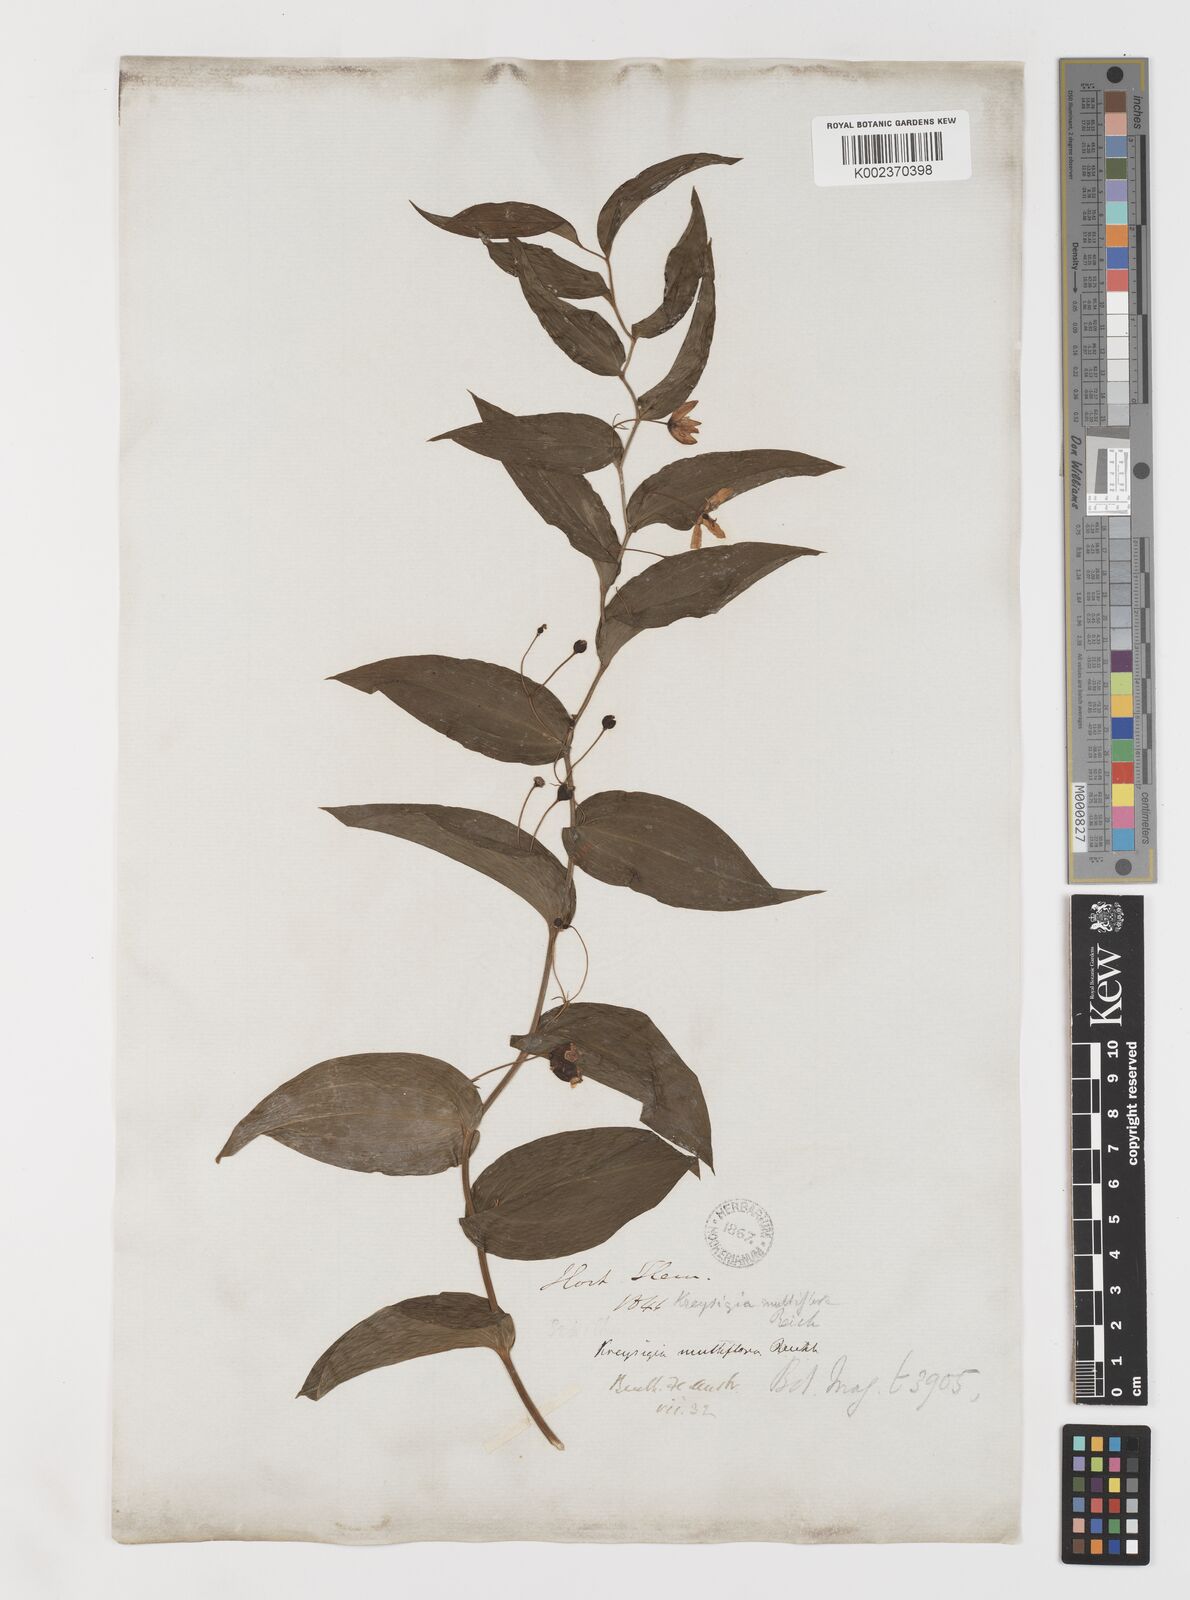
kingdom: Plantae
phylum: Tracheophyta
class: Liliopsida
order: Liliales
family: Colchicaceae
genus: Tripladenia
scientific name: Tripladenia
